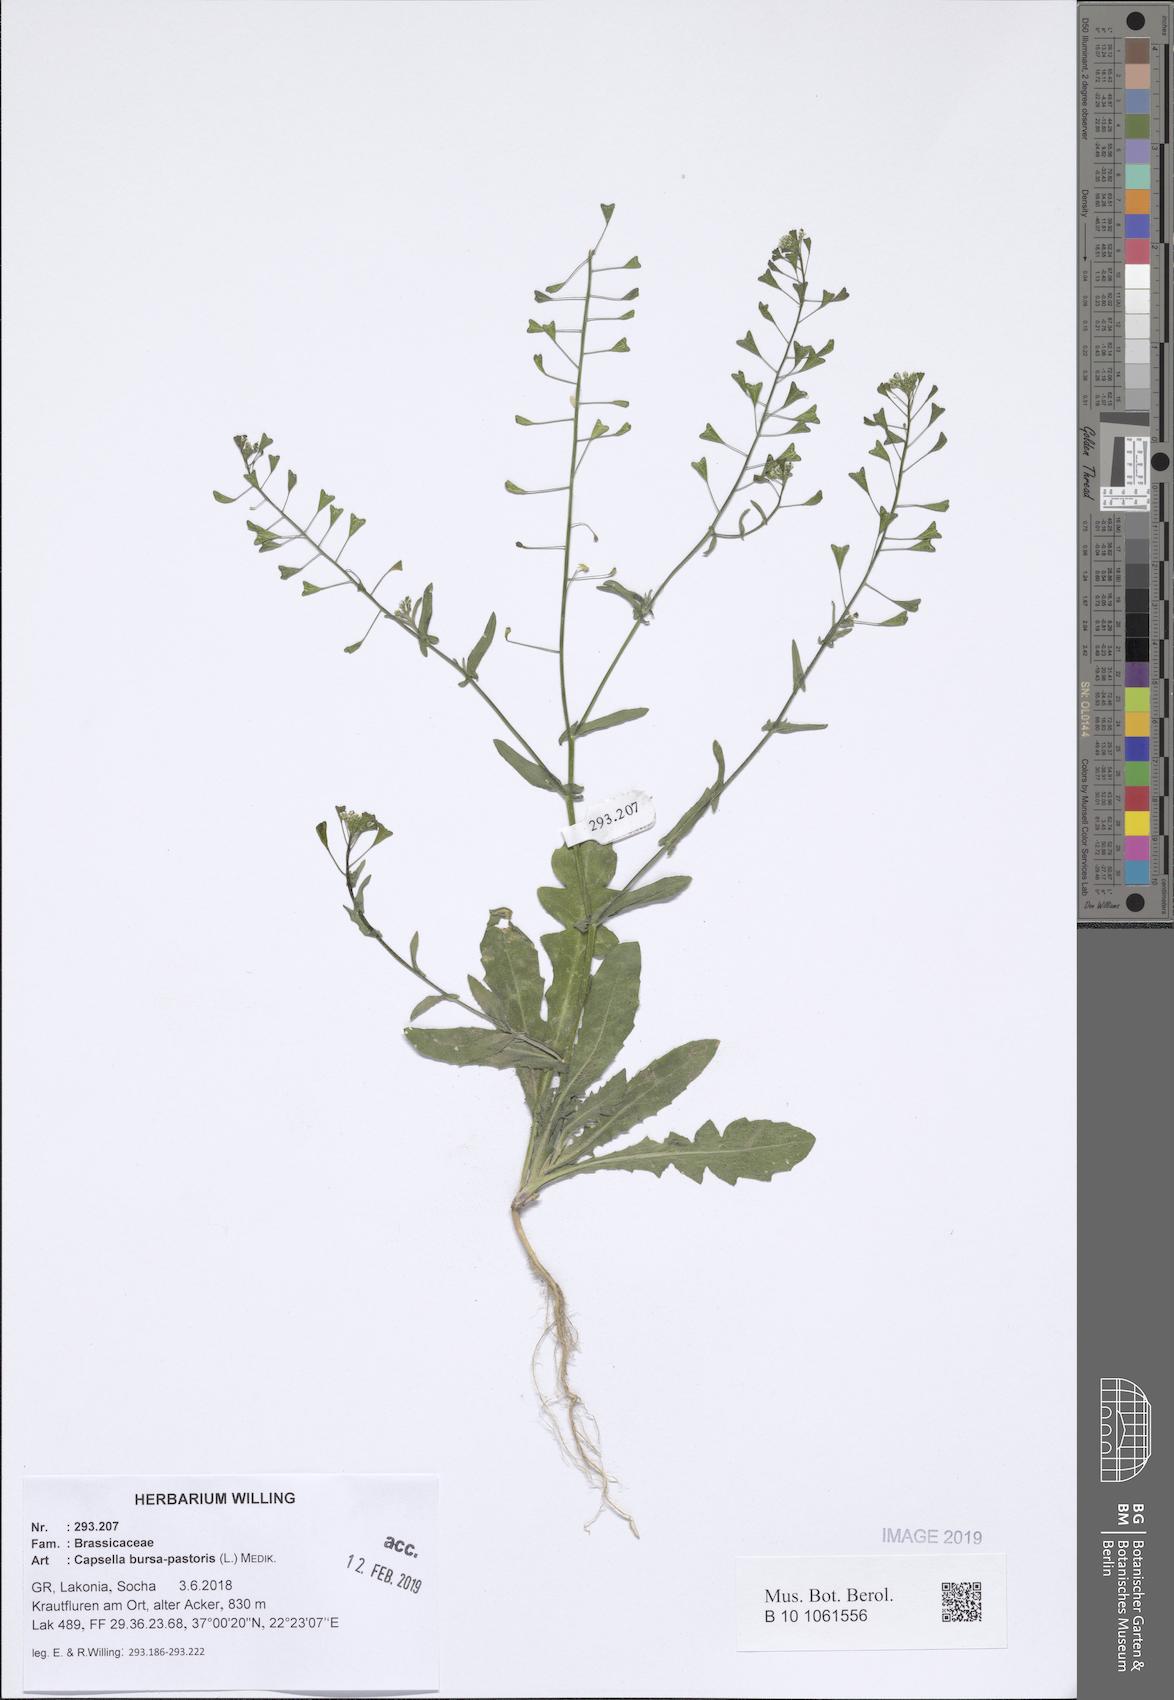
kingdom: Plantae
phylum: Tracheophyta
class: Magnoliopsida
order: Brassicales
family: Brassicaceae
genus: Capsella
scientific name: Capsella bursa-pastoris
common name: Shepherd's purse
